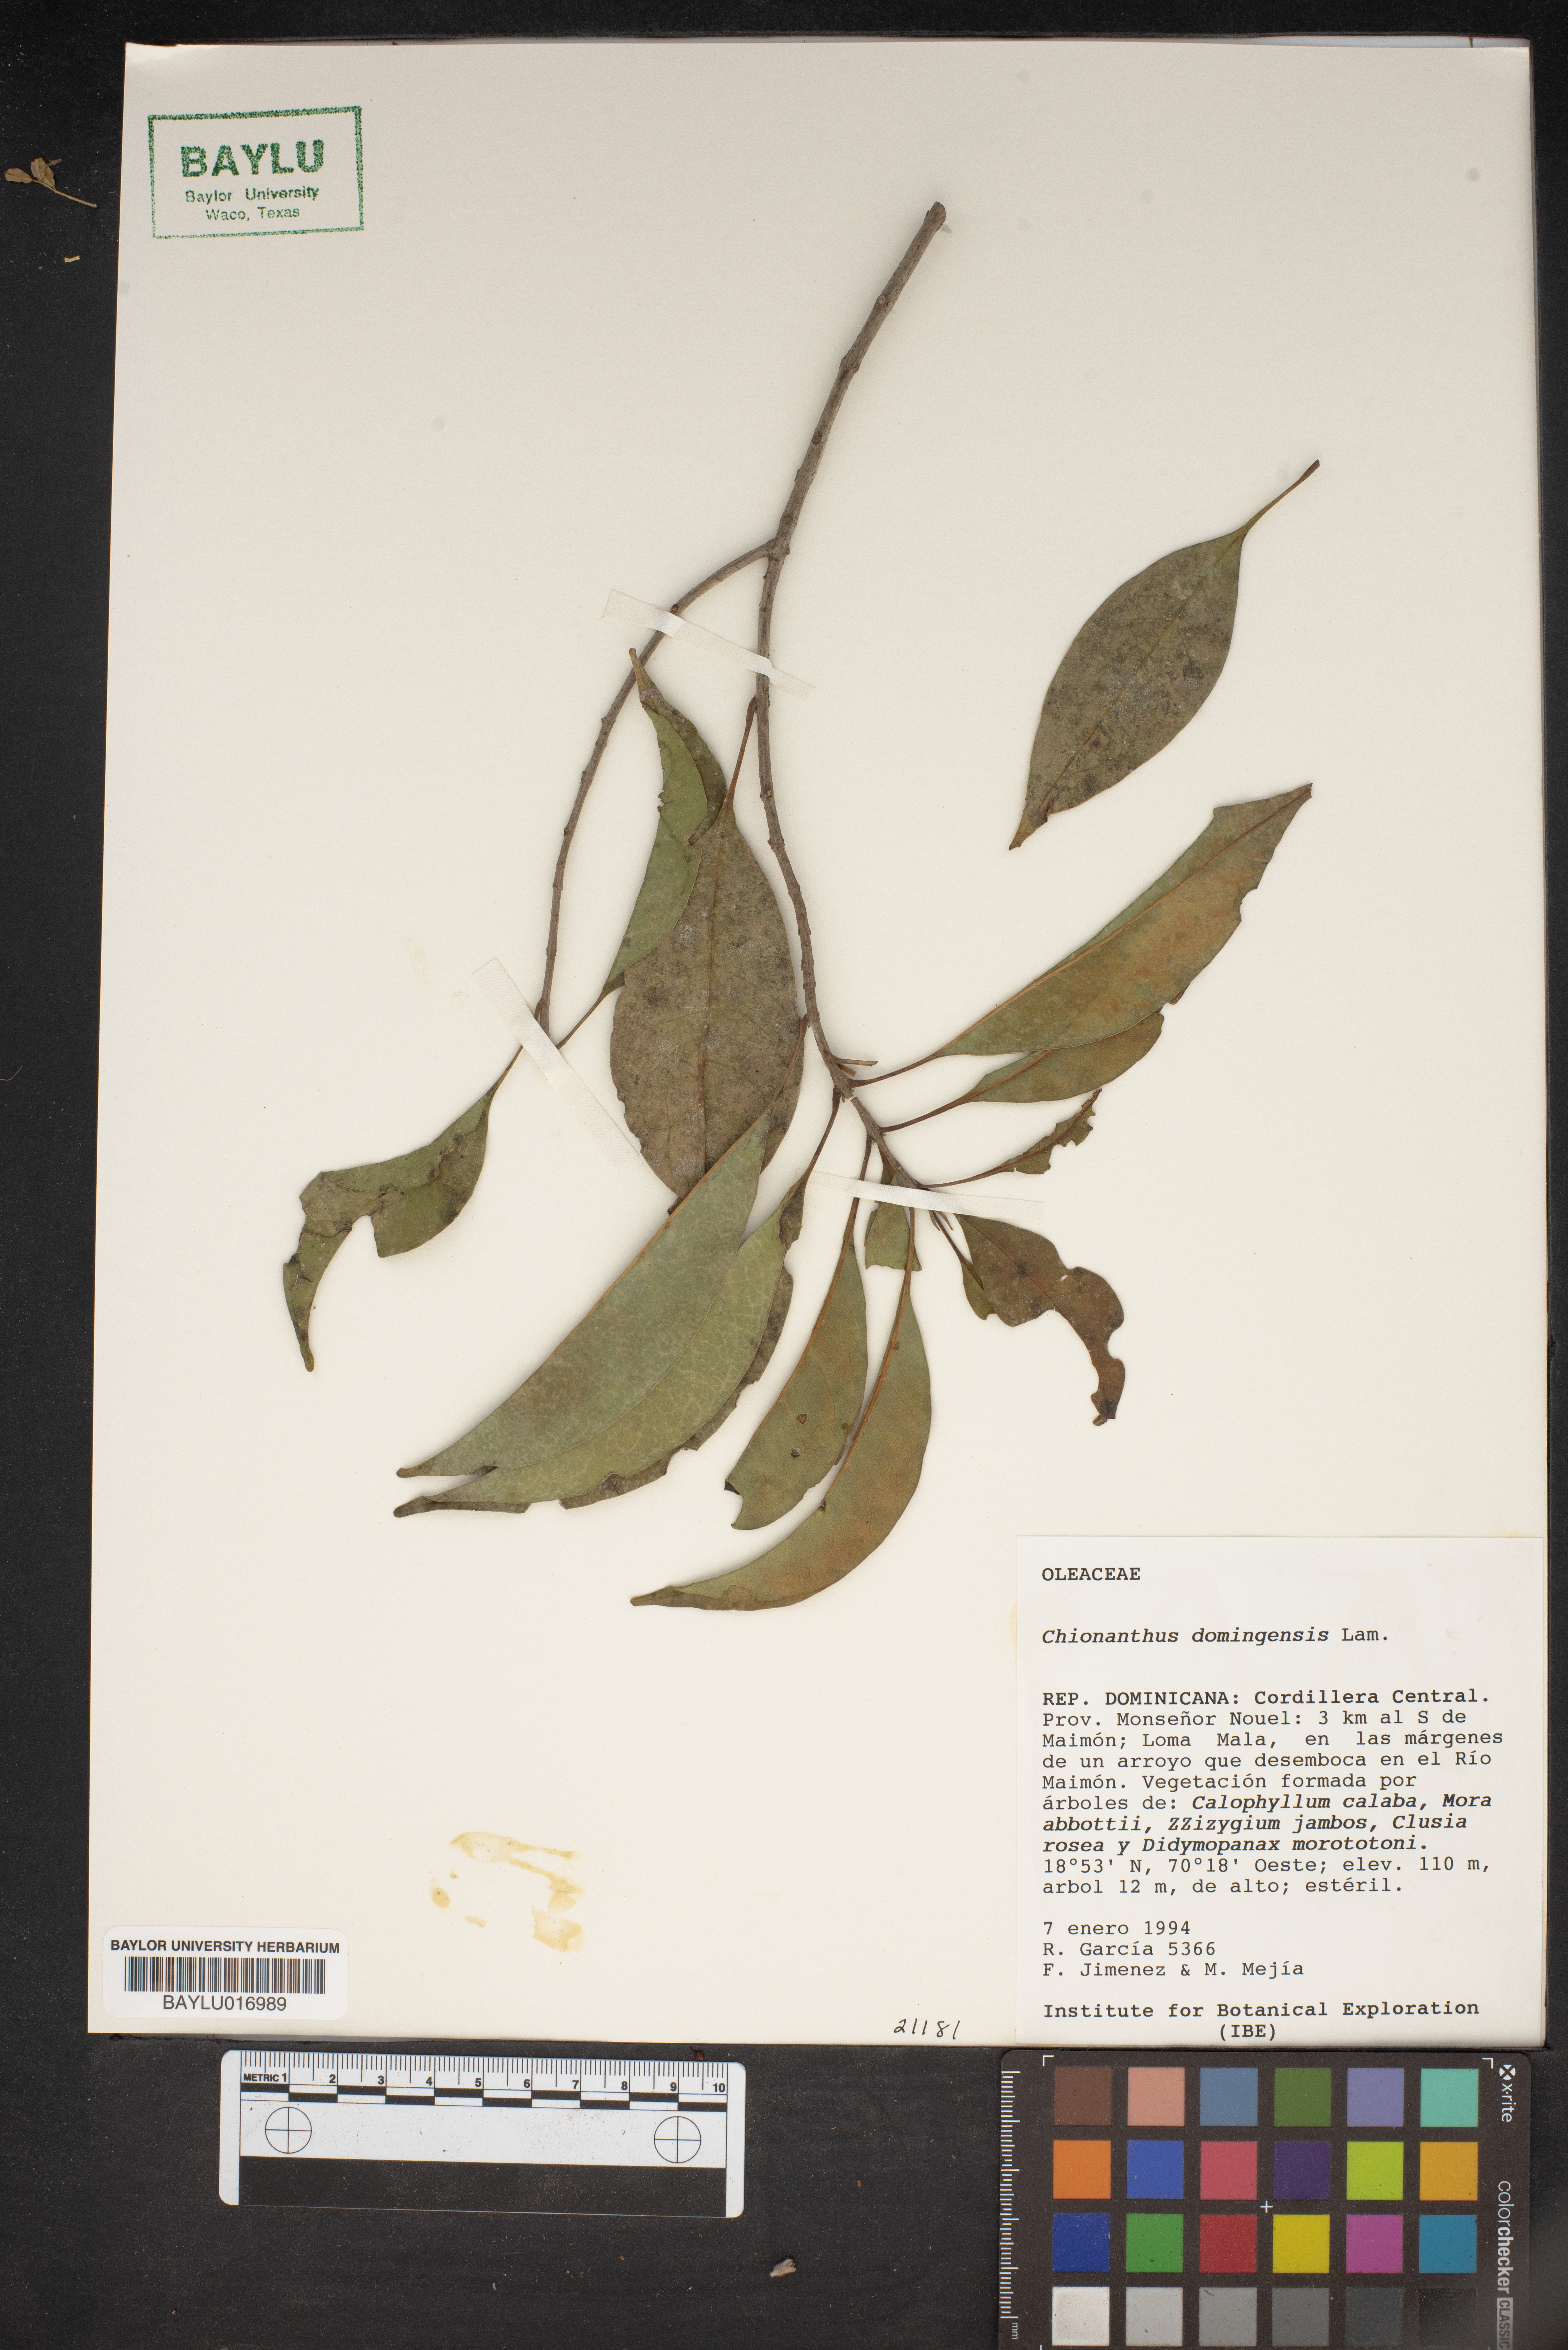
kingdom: Plantae
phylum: Tracheophyta
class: Magnoliopsida
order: Lamiales
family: Oleaceae
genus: Chionanthus
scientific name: Chionanthus domingensis
